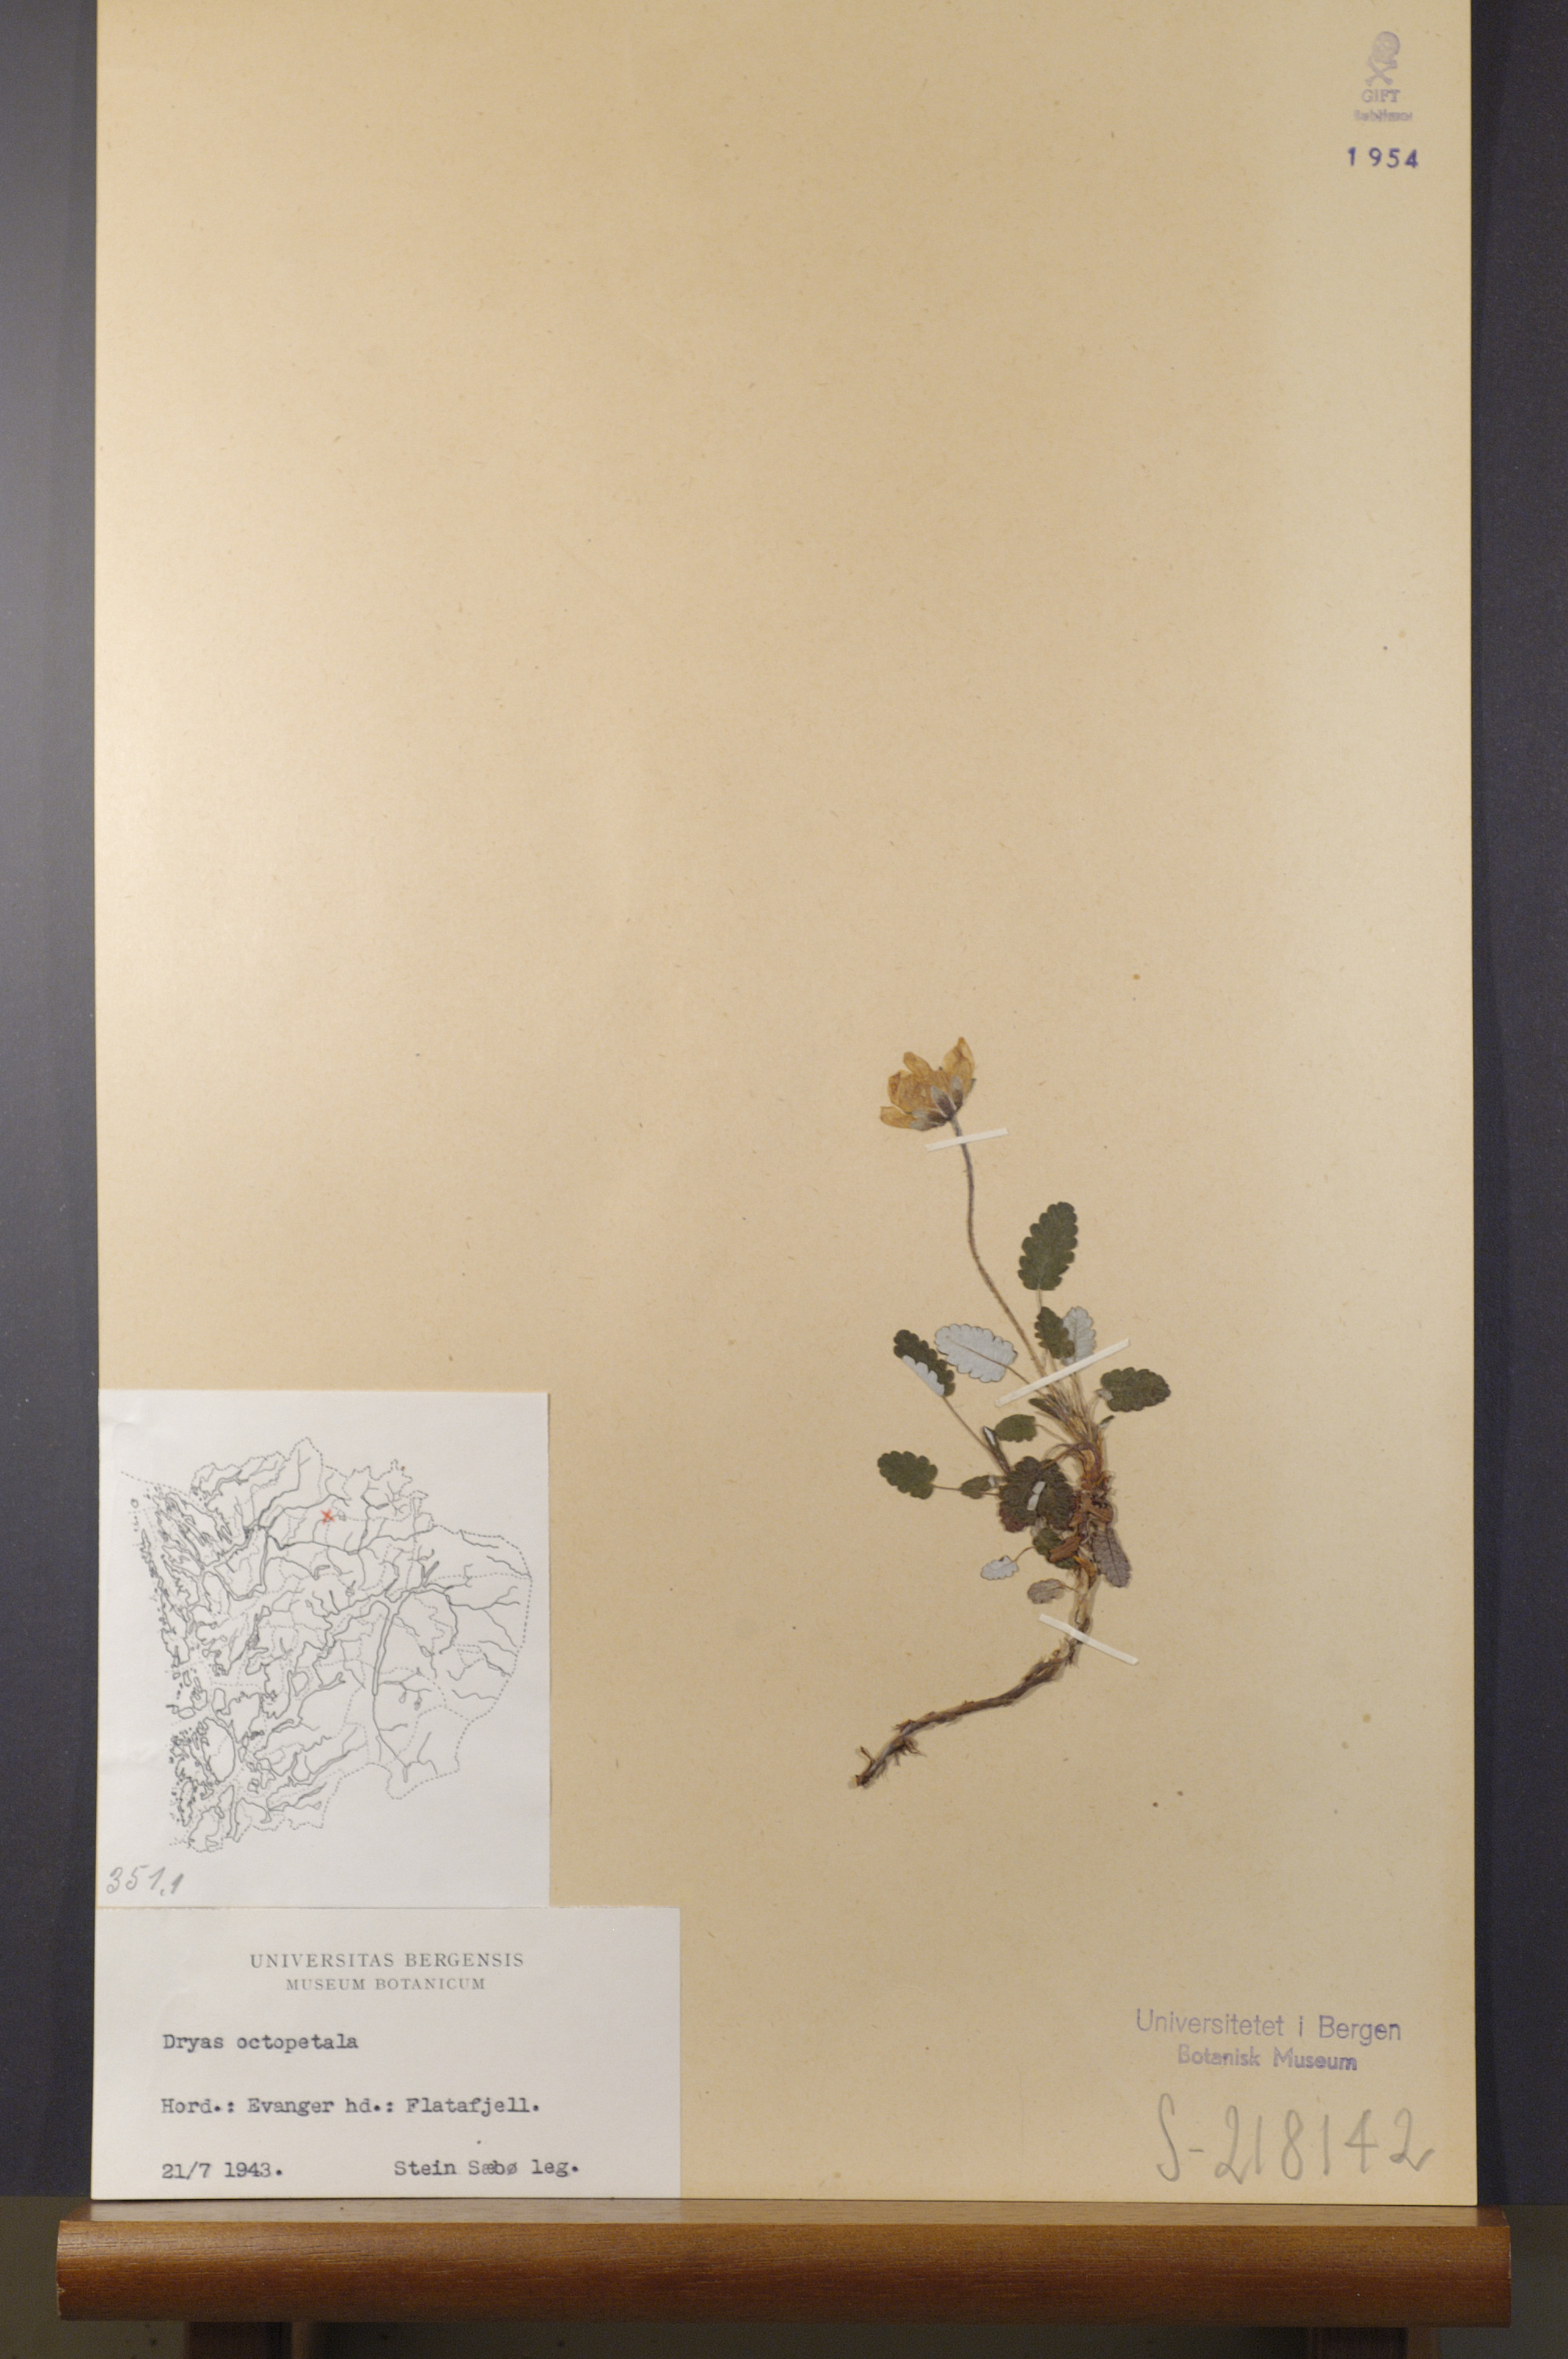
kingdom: Plantae
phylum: Tracheophyta
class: Magnoliopsida
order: Rosales
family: Rosaceae
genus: Dryas
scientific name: Dryas octopetala
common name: Eight-petal mountain-avens
